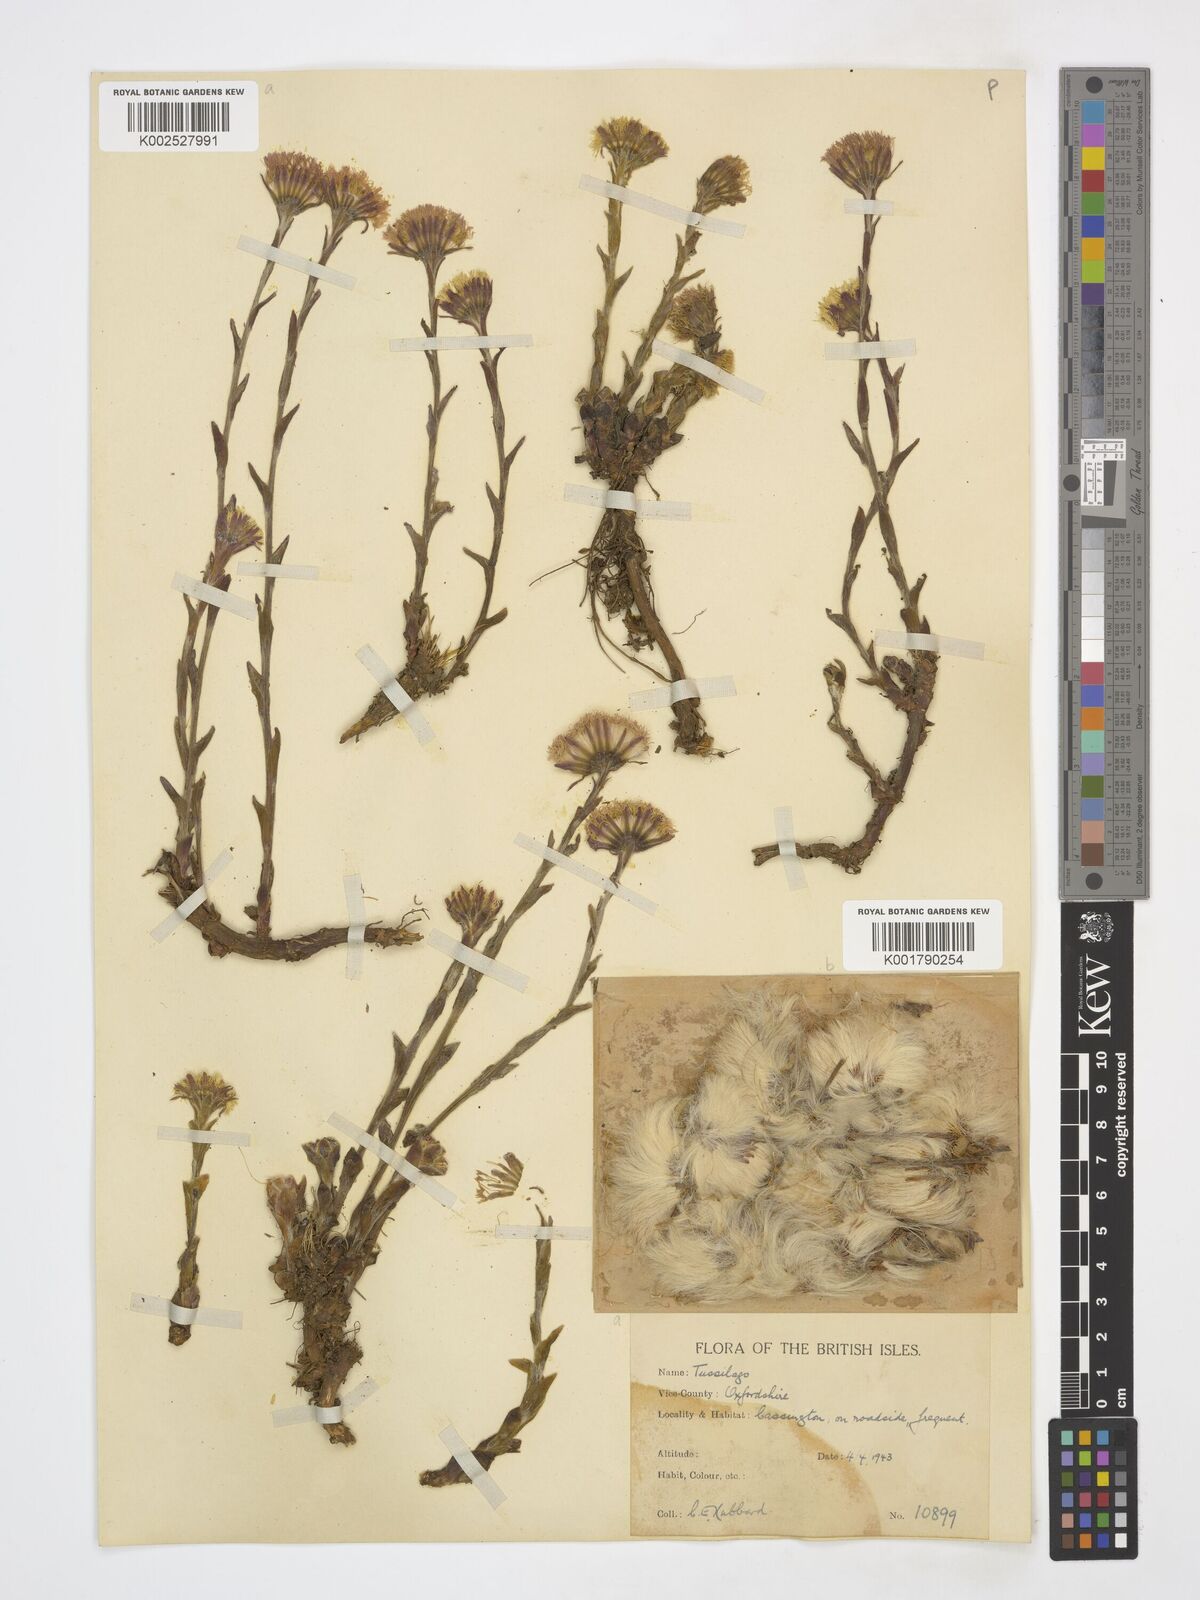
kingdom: Plantae
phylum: Tracheophyta
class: Magnoliopsida
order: Asterales
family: Asteraceae
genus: Tussilago
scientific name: Tussilago farfara
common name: Coltsfoot
